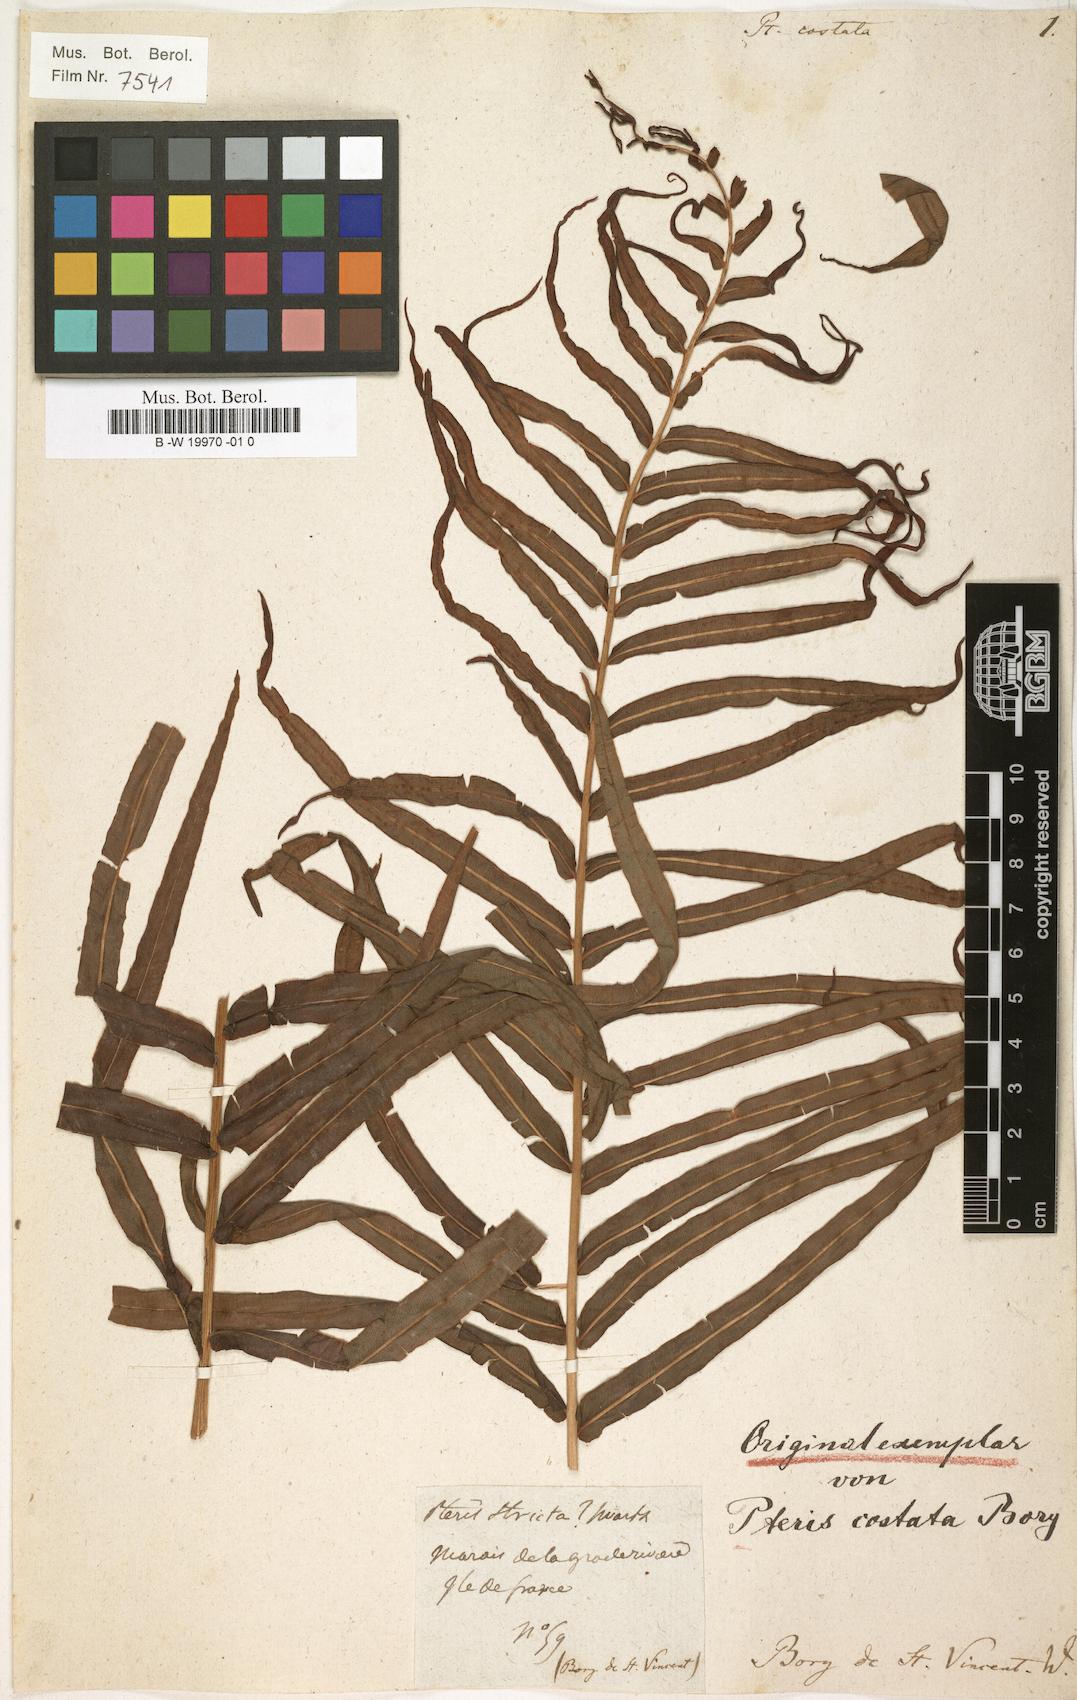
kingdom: Plantae
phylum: Tracheophyta
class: Polypodiopsida
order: Polypodiales
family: Pteridaceae
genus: Pteris
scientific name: Pteris vittata
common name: Ladder brake
